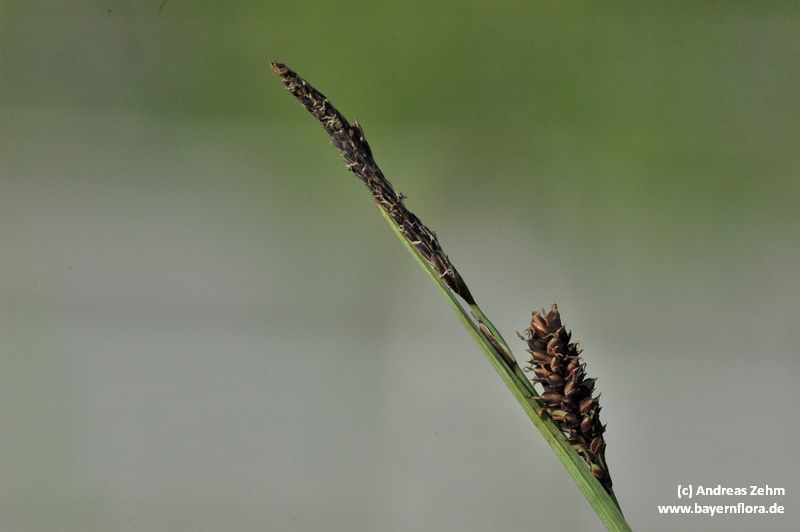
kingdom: Plantae
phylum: Tracheophyta
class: Liliopsida
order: Poales
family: Cyperaceae
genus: Carex
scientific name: Carex flacca
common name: Glaucous sedge
